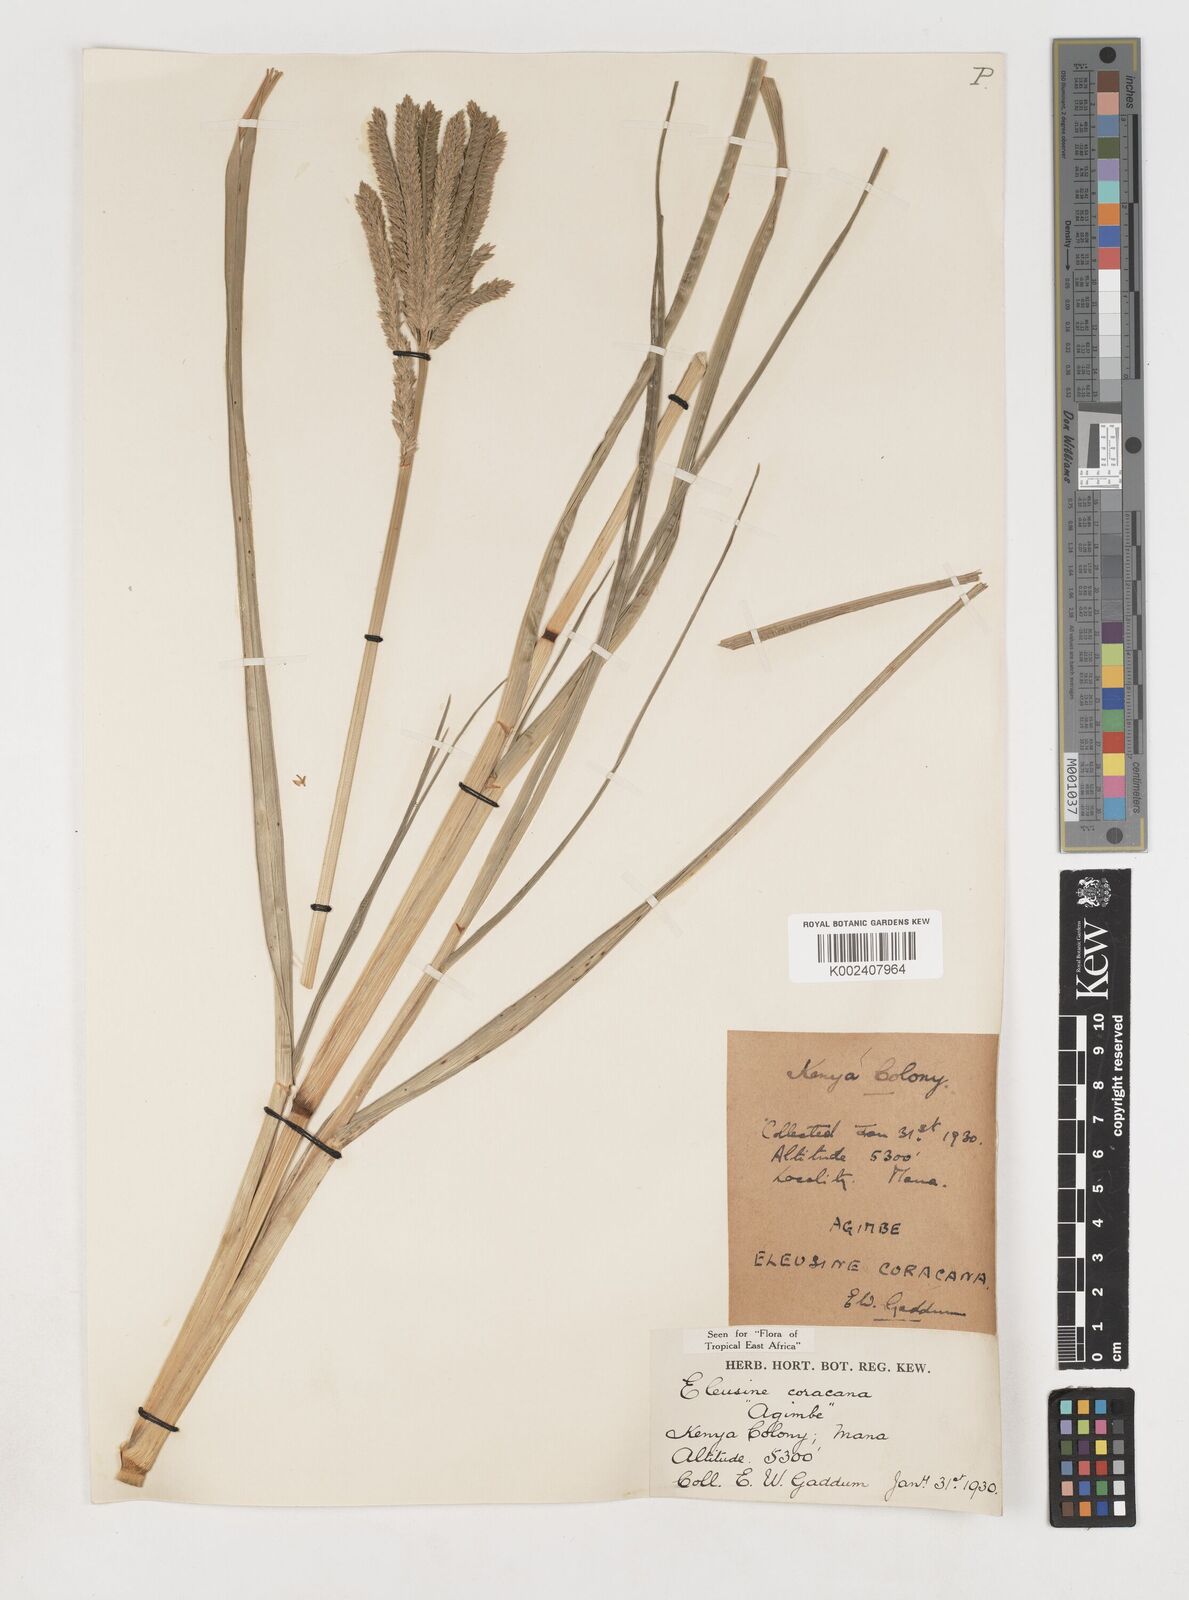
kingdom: Plantae
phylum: Tracheophyta
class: Liliopsida
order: Poales
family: Poaceae
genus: Eleusine
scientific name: Eleusine coracana
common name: Finger millet
